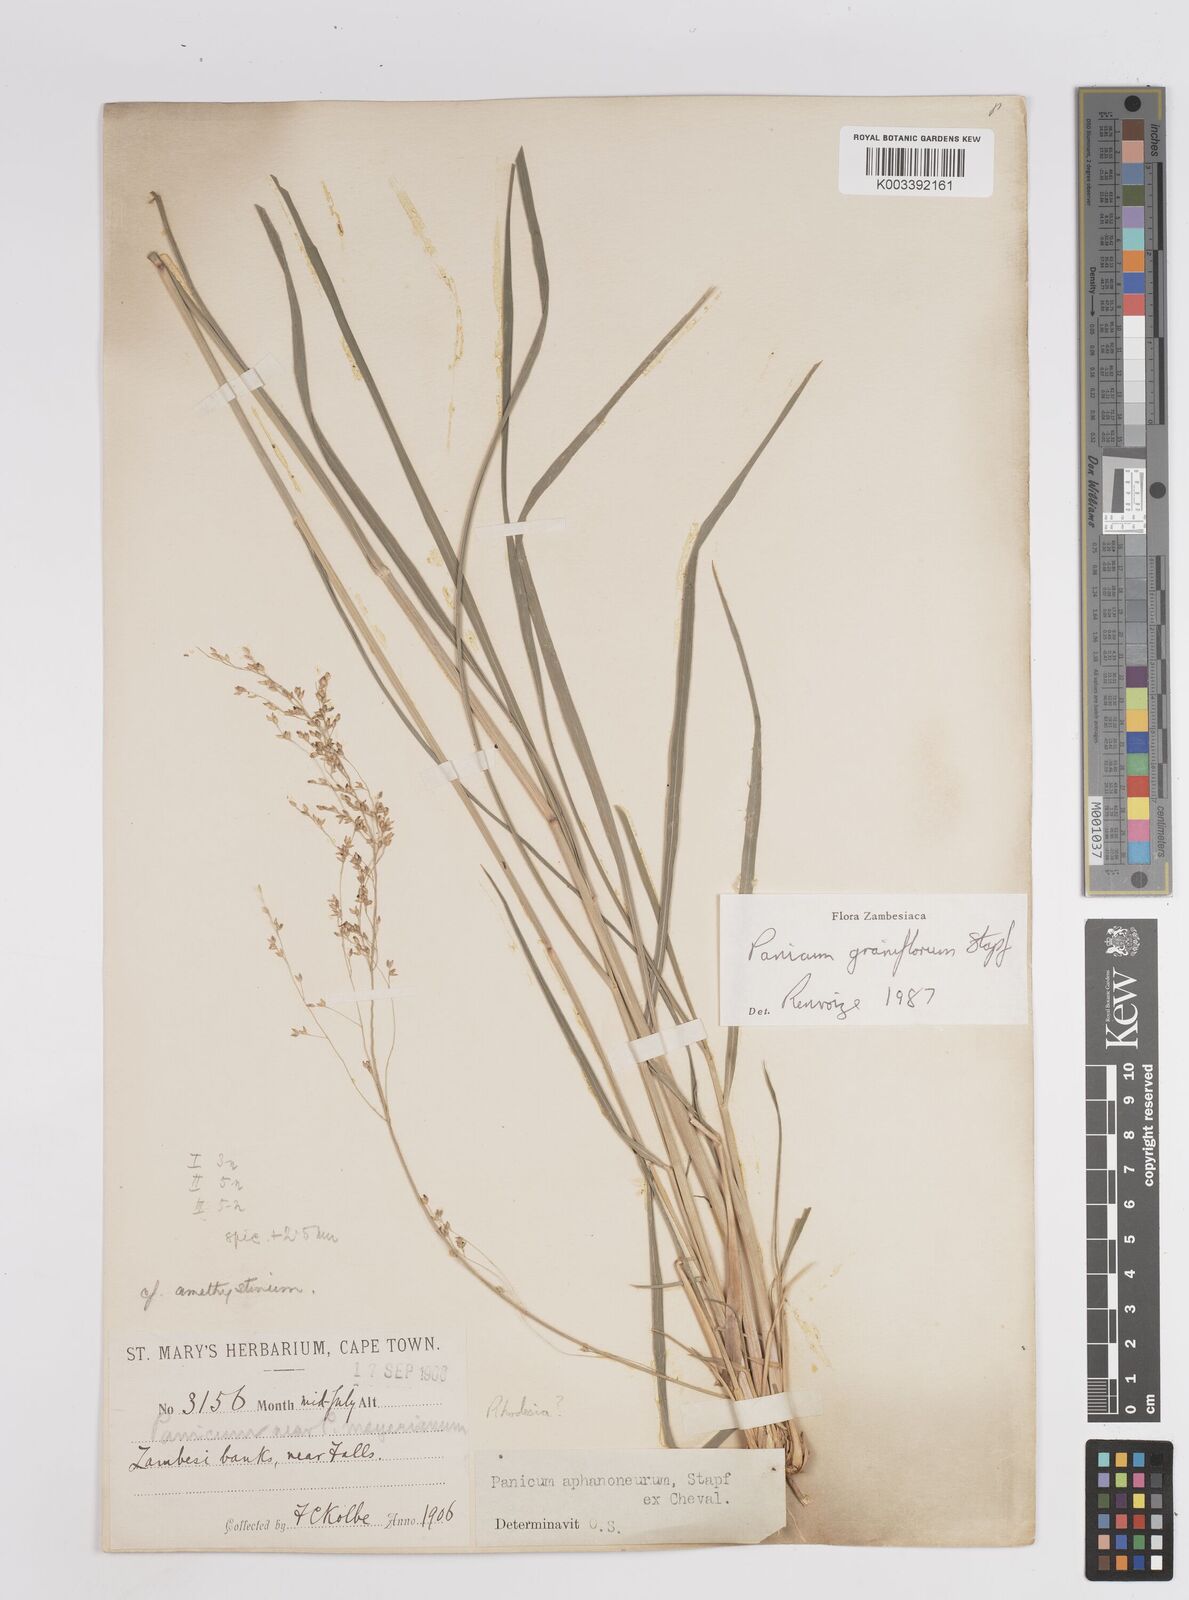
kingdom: Plantae
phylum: Tracheophyta
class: Liliopsida
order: Poales
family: Poaceae
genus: Panicum
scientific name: Panicum graniflorum
